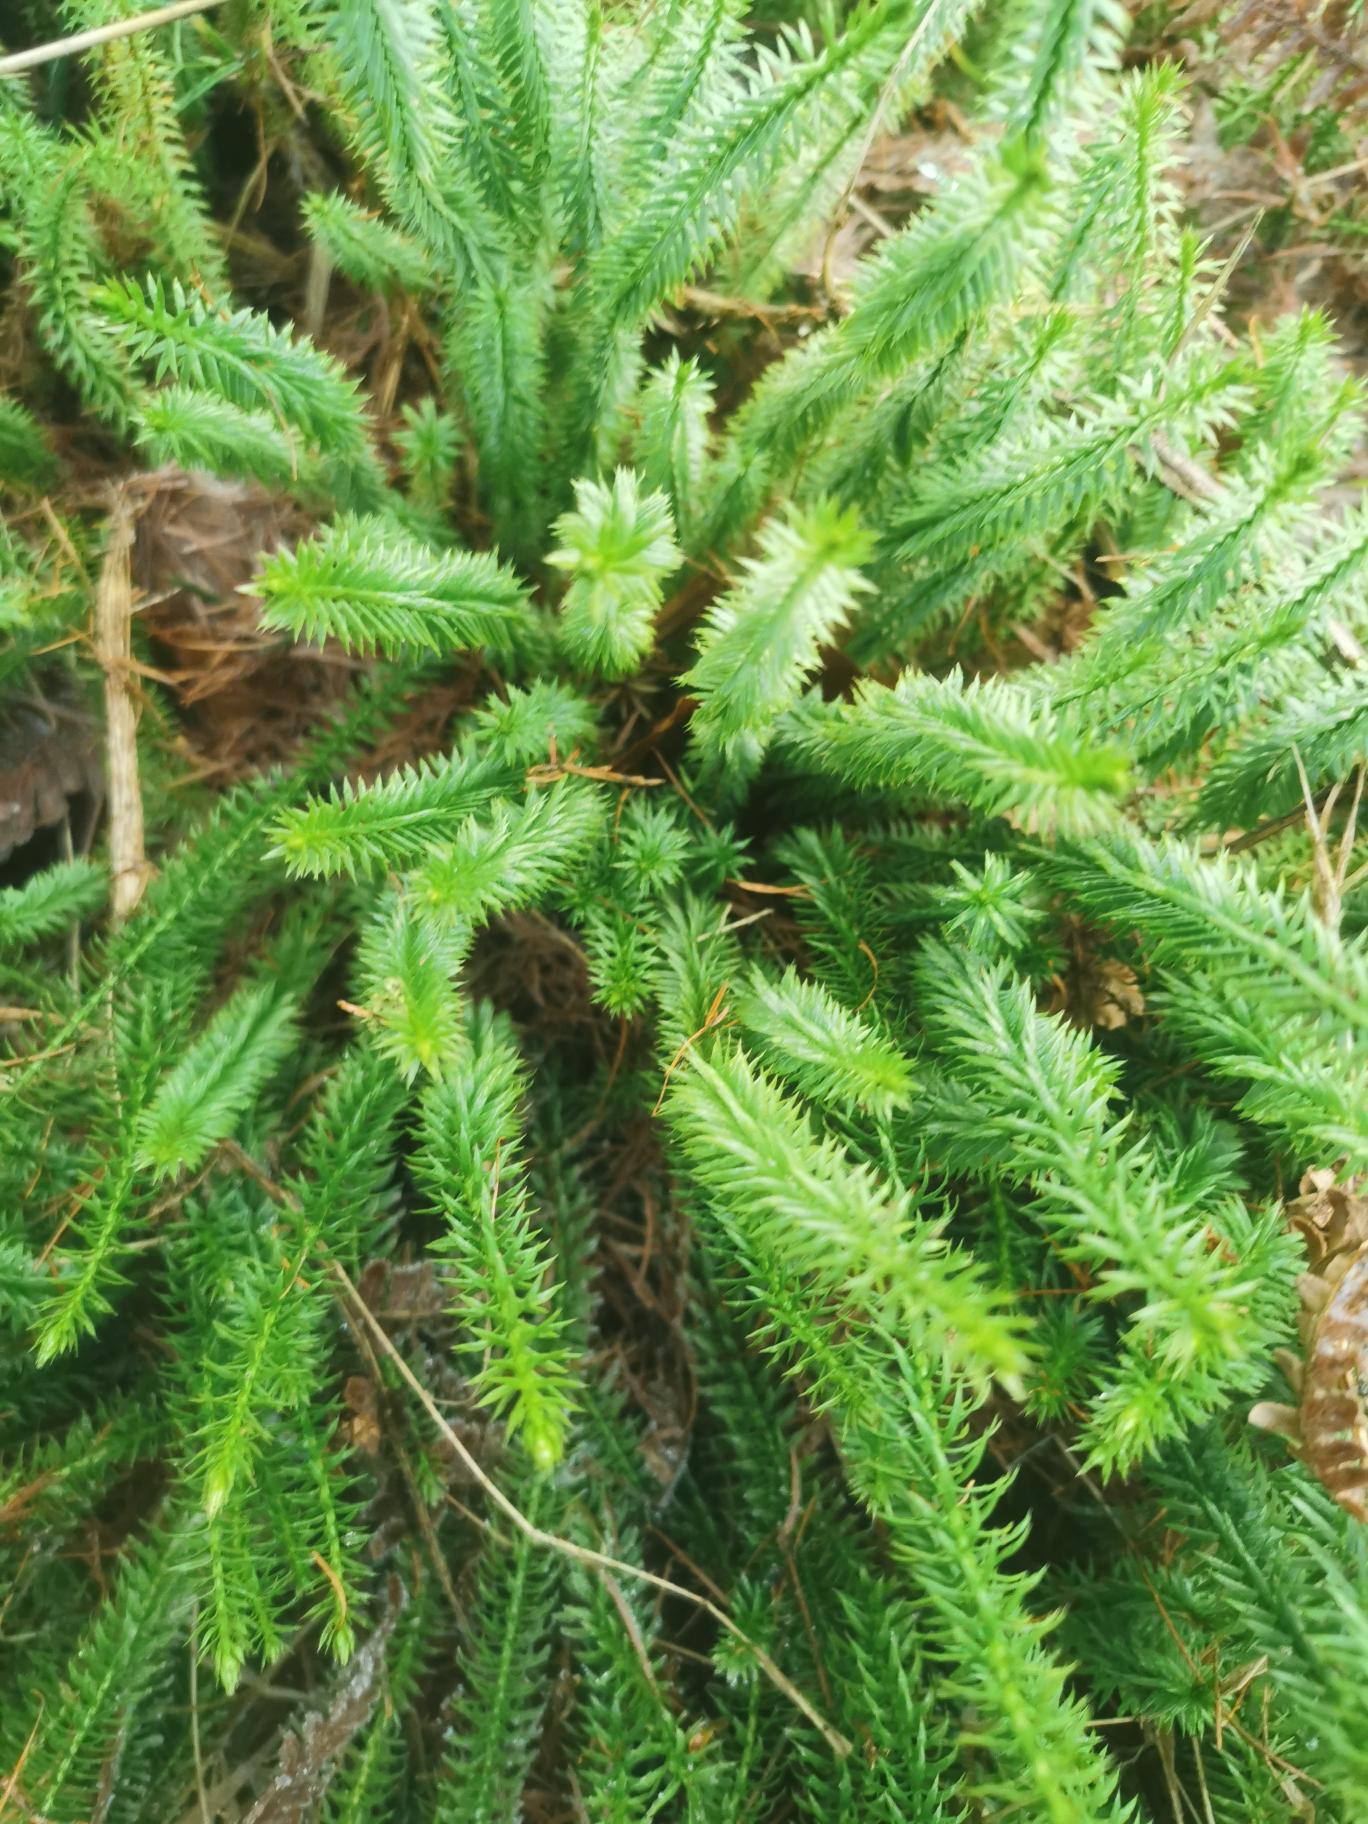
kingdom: Plantae
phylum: Tracheophyta
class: Lycopodiopsida
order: Lycopodiales
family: Lycopodiaceae
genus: Spinulum
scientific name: Spinulum annotinum
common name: Femradet ulvefod
